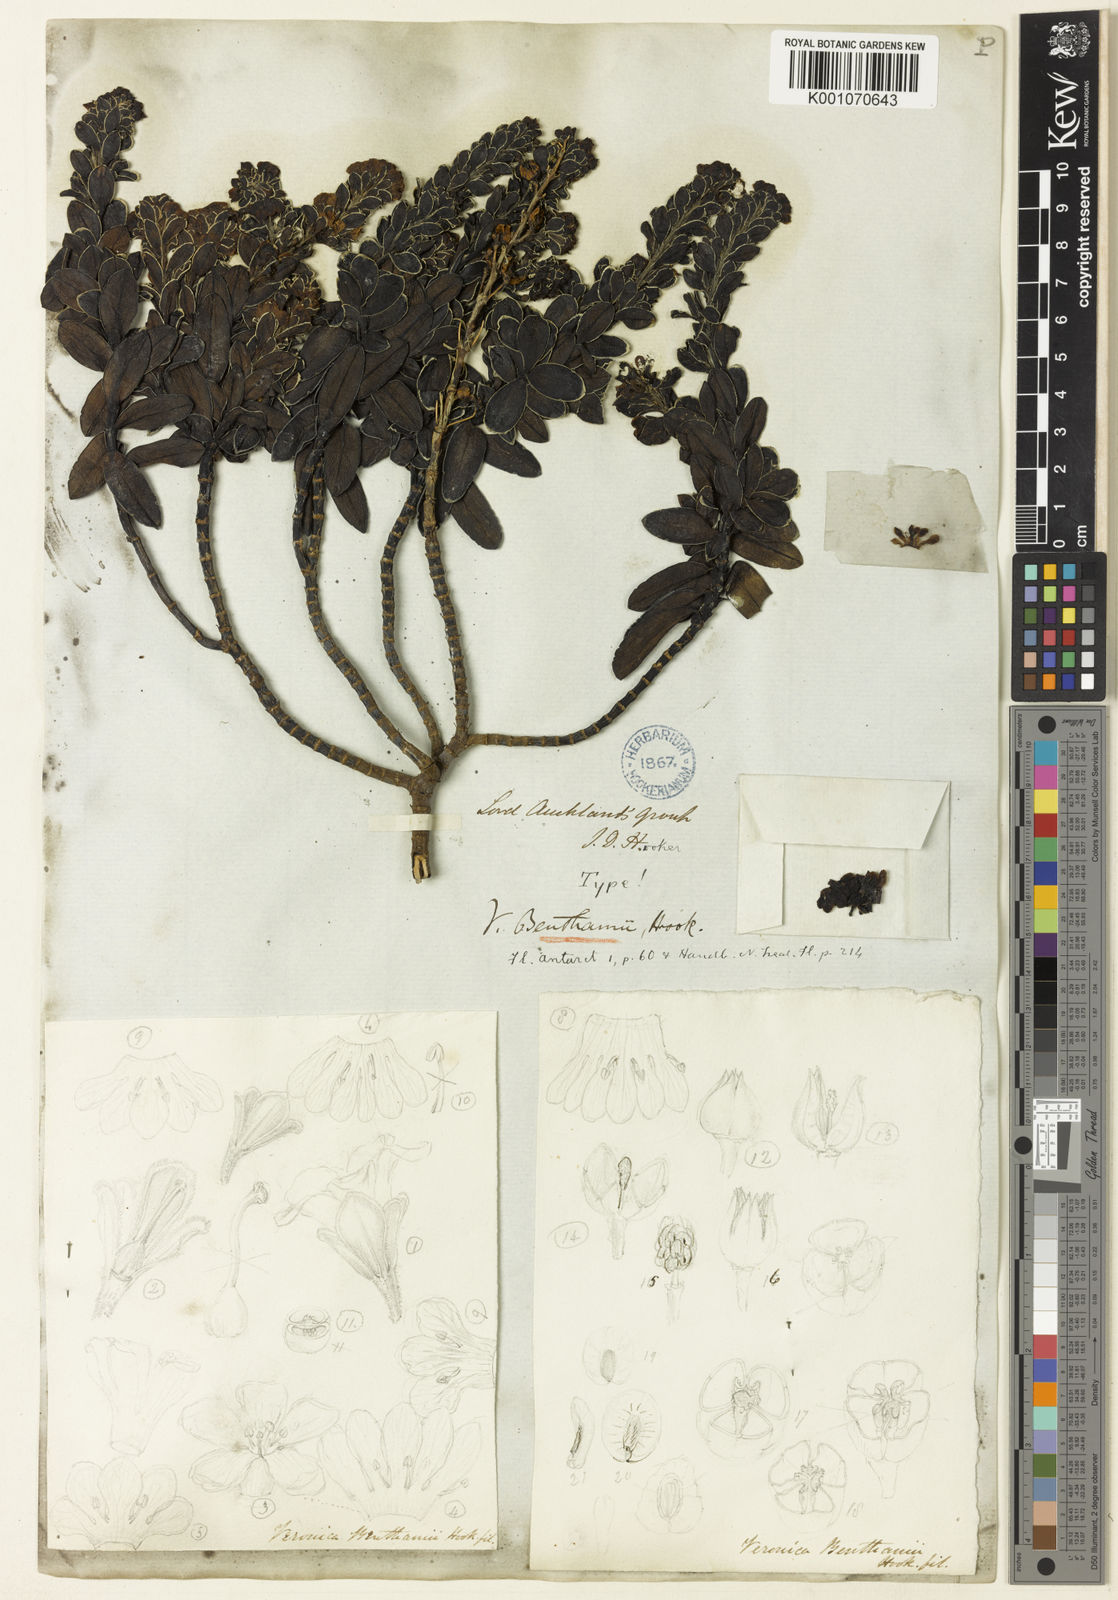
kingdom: Plantae
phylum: Tracheophyta
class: Magnoliopsida
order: Lamiales
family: Plantaginaceae
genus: Veronica
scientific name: Veronica benthamii
